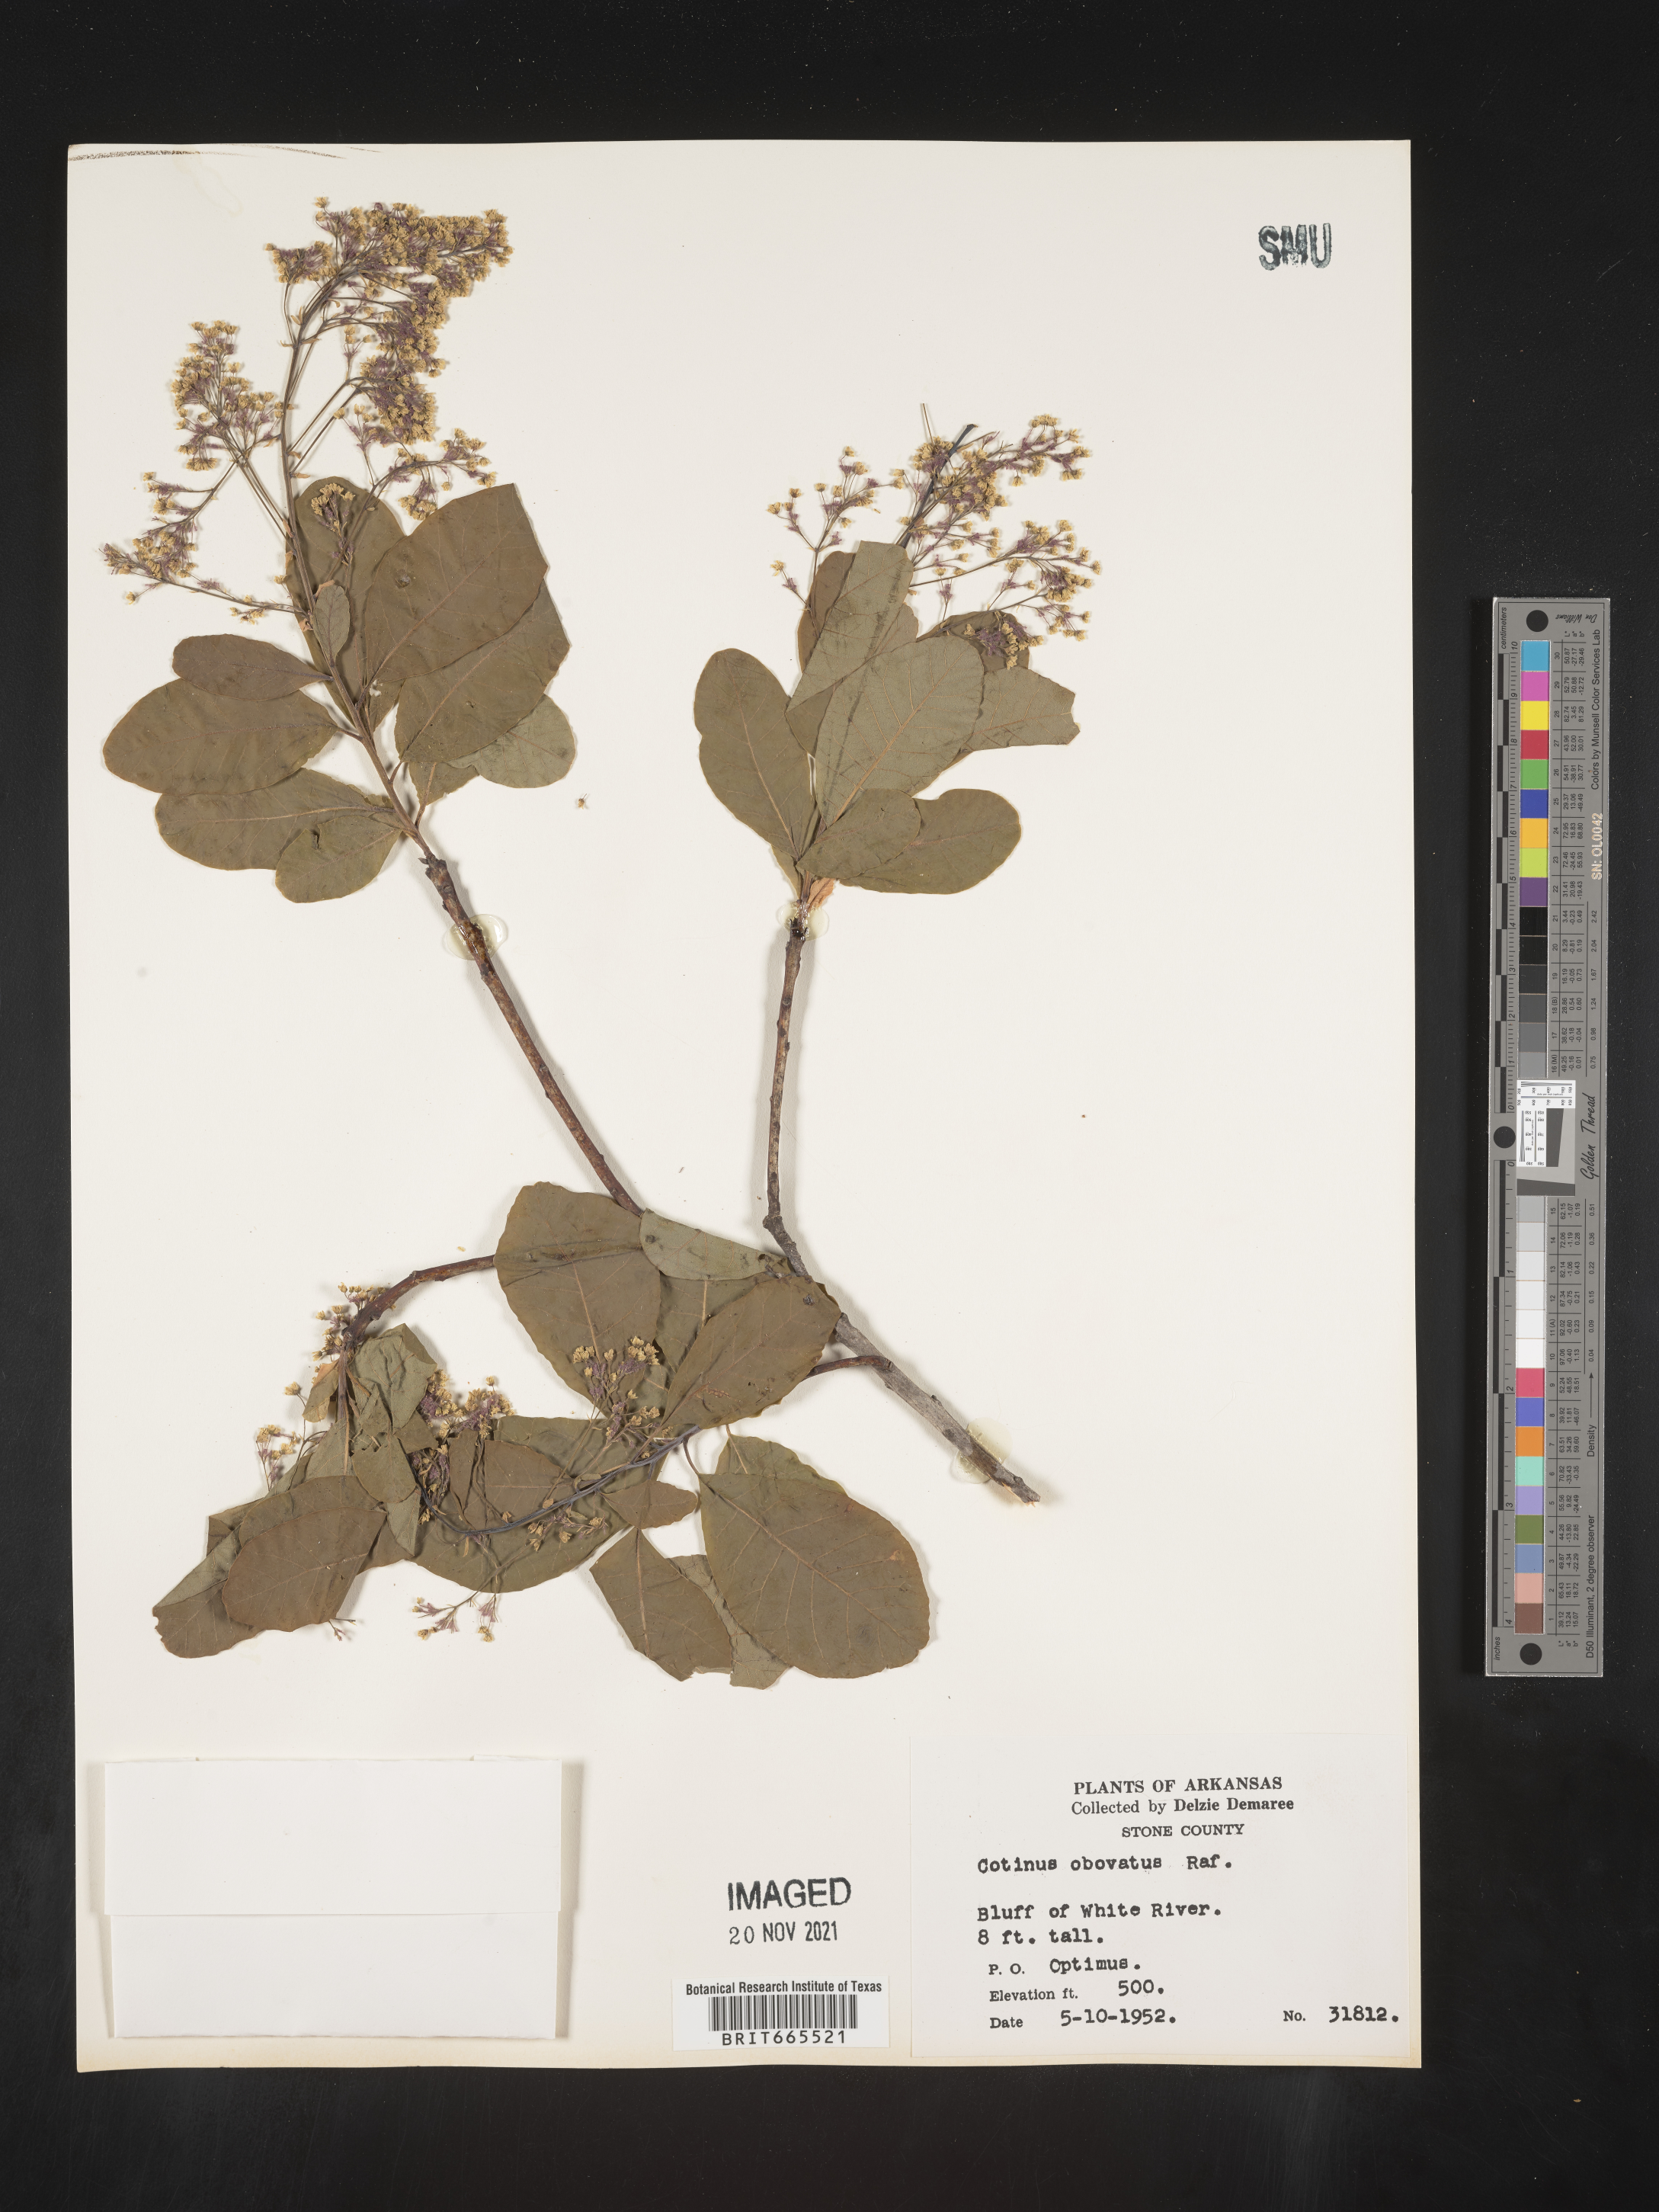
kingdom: Plantae
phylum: Tracheophyta
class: Magnoliopsida
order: Sapindales
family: Anacardiaceae
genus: Cotinus
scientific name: Cotinus obovatus
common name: Chittamwood
